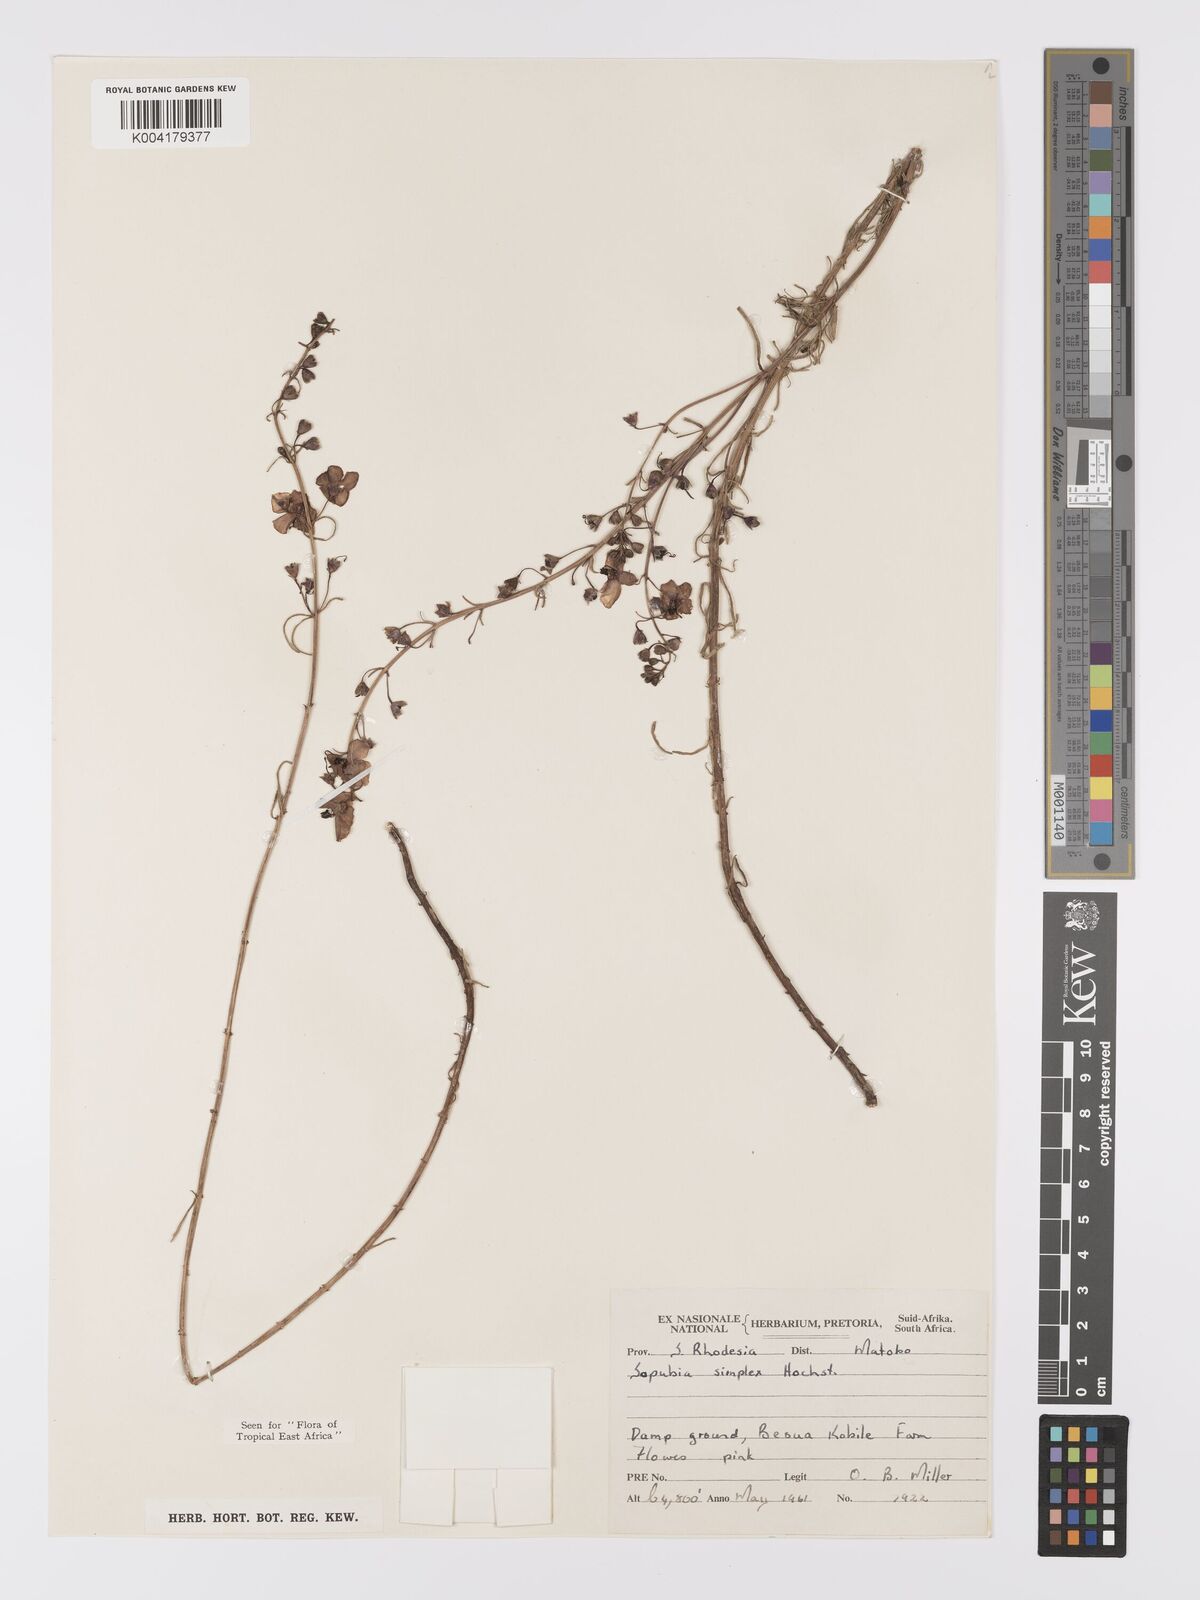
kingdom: Plantae
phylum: Tracheophyta
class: Magnoliopsida
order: Lamiales
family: Orobanchaceae
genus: Sopubia
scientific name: Sopubia simplex
